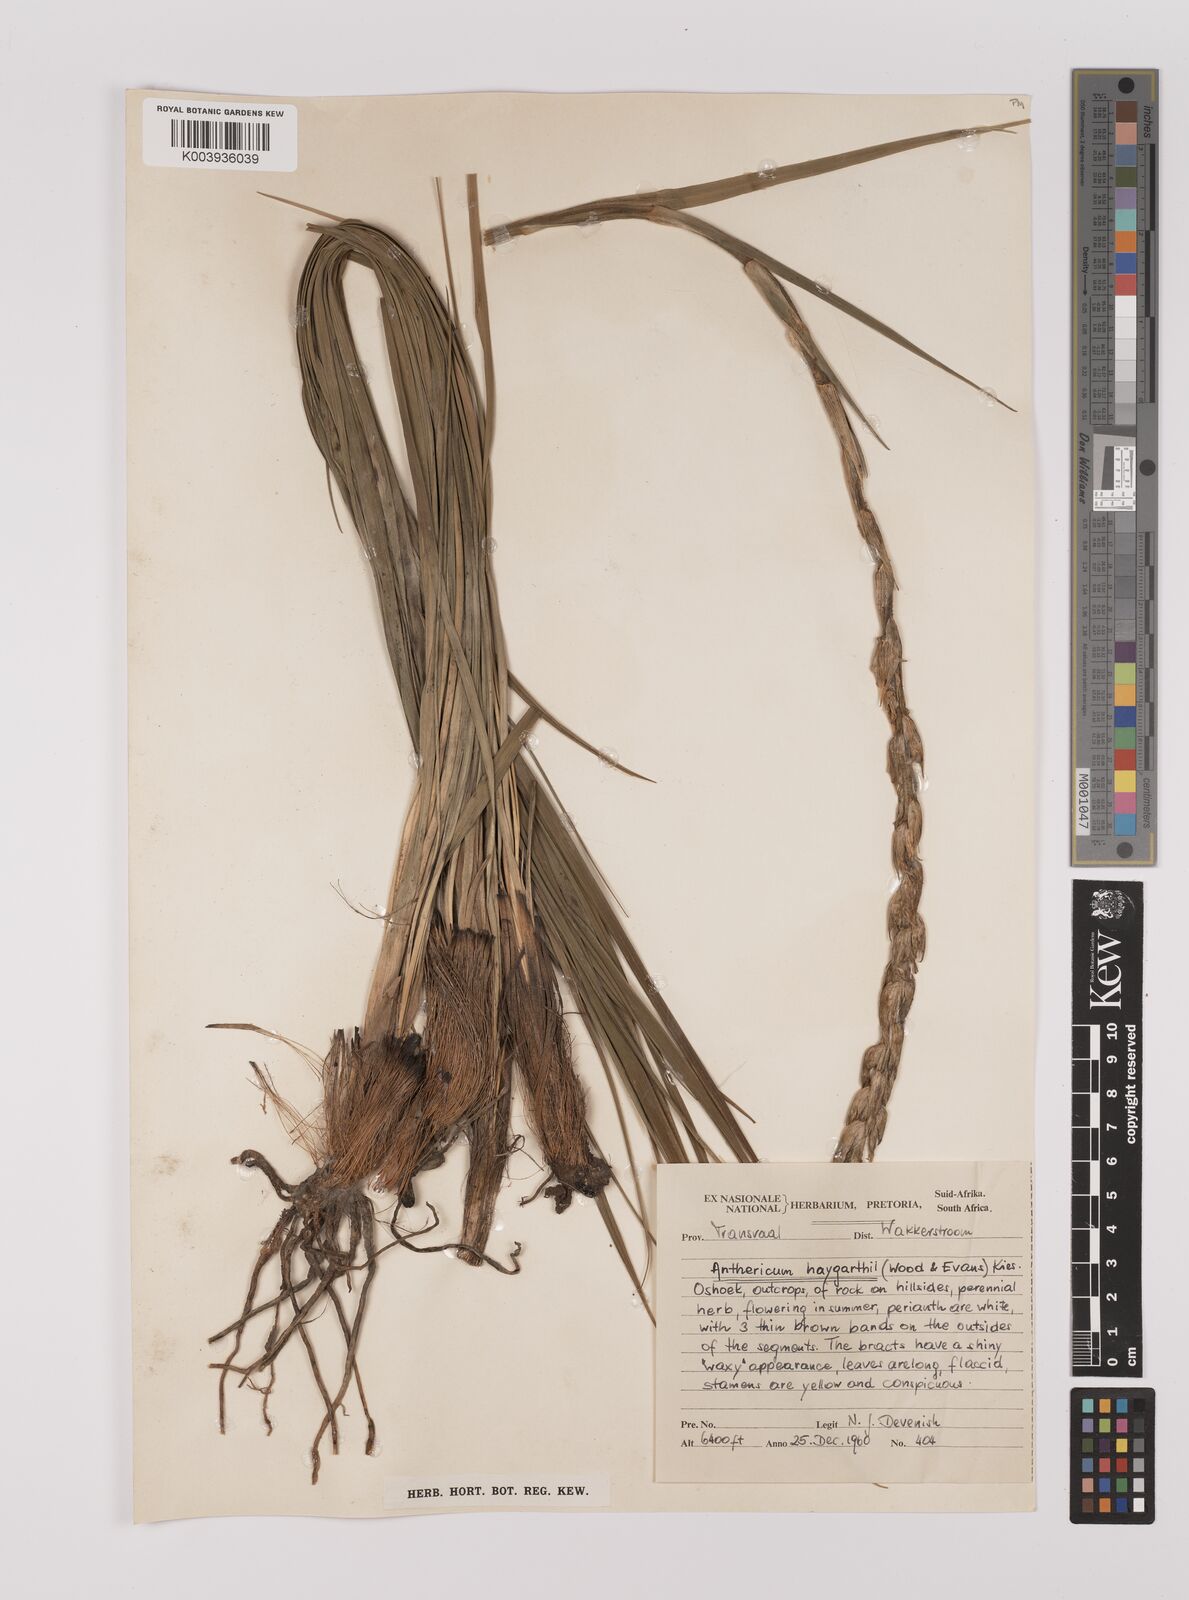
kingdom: Plantae
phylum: Tracheophyta
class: Liliopsida
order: Asparagales
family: Asparagaceae
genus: Chlorophytum
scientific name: Chlorophytum haygarthii
